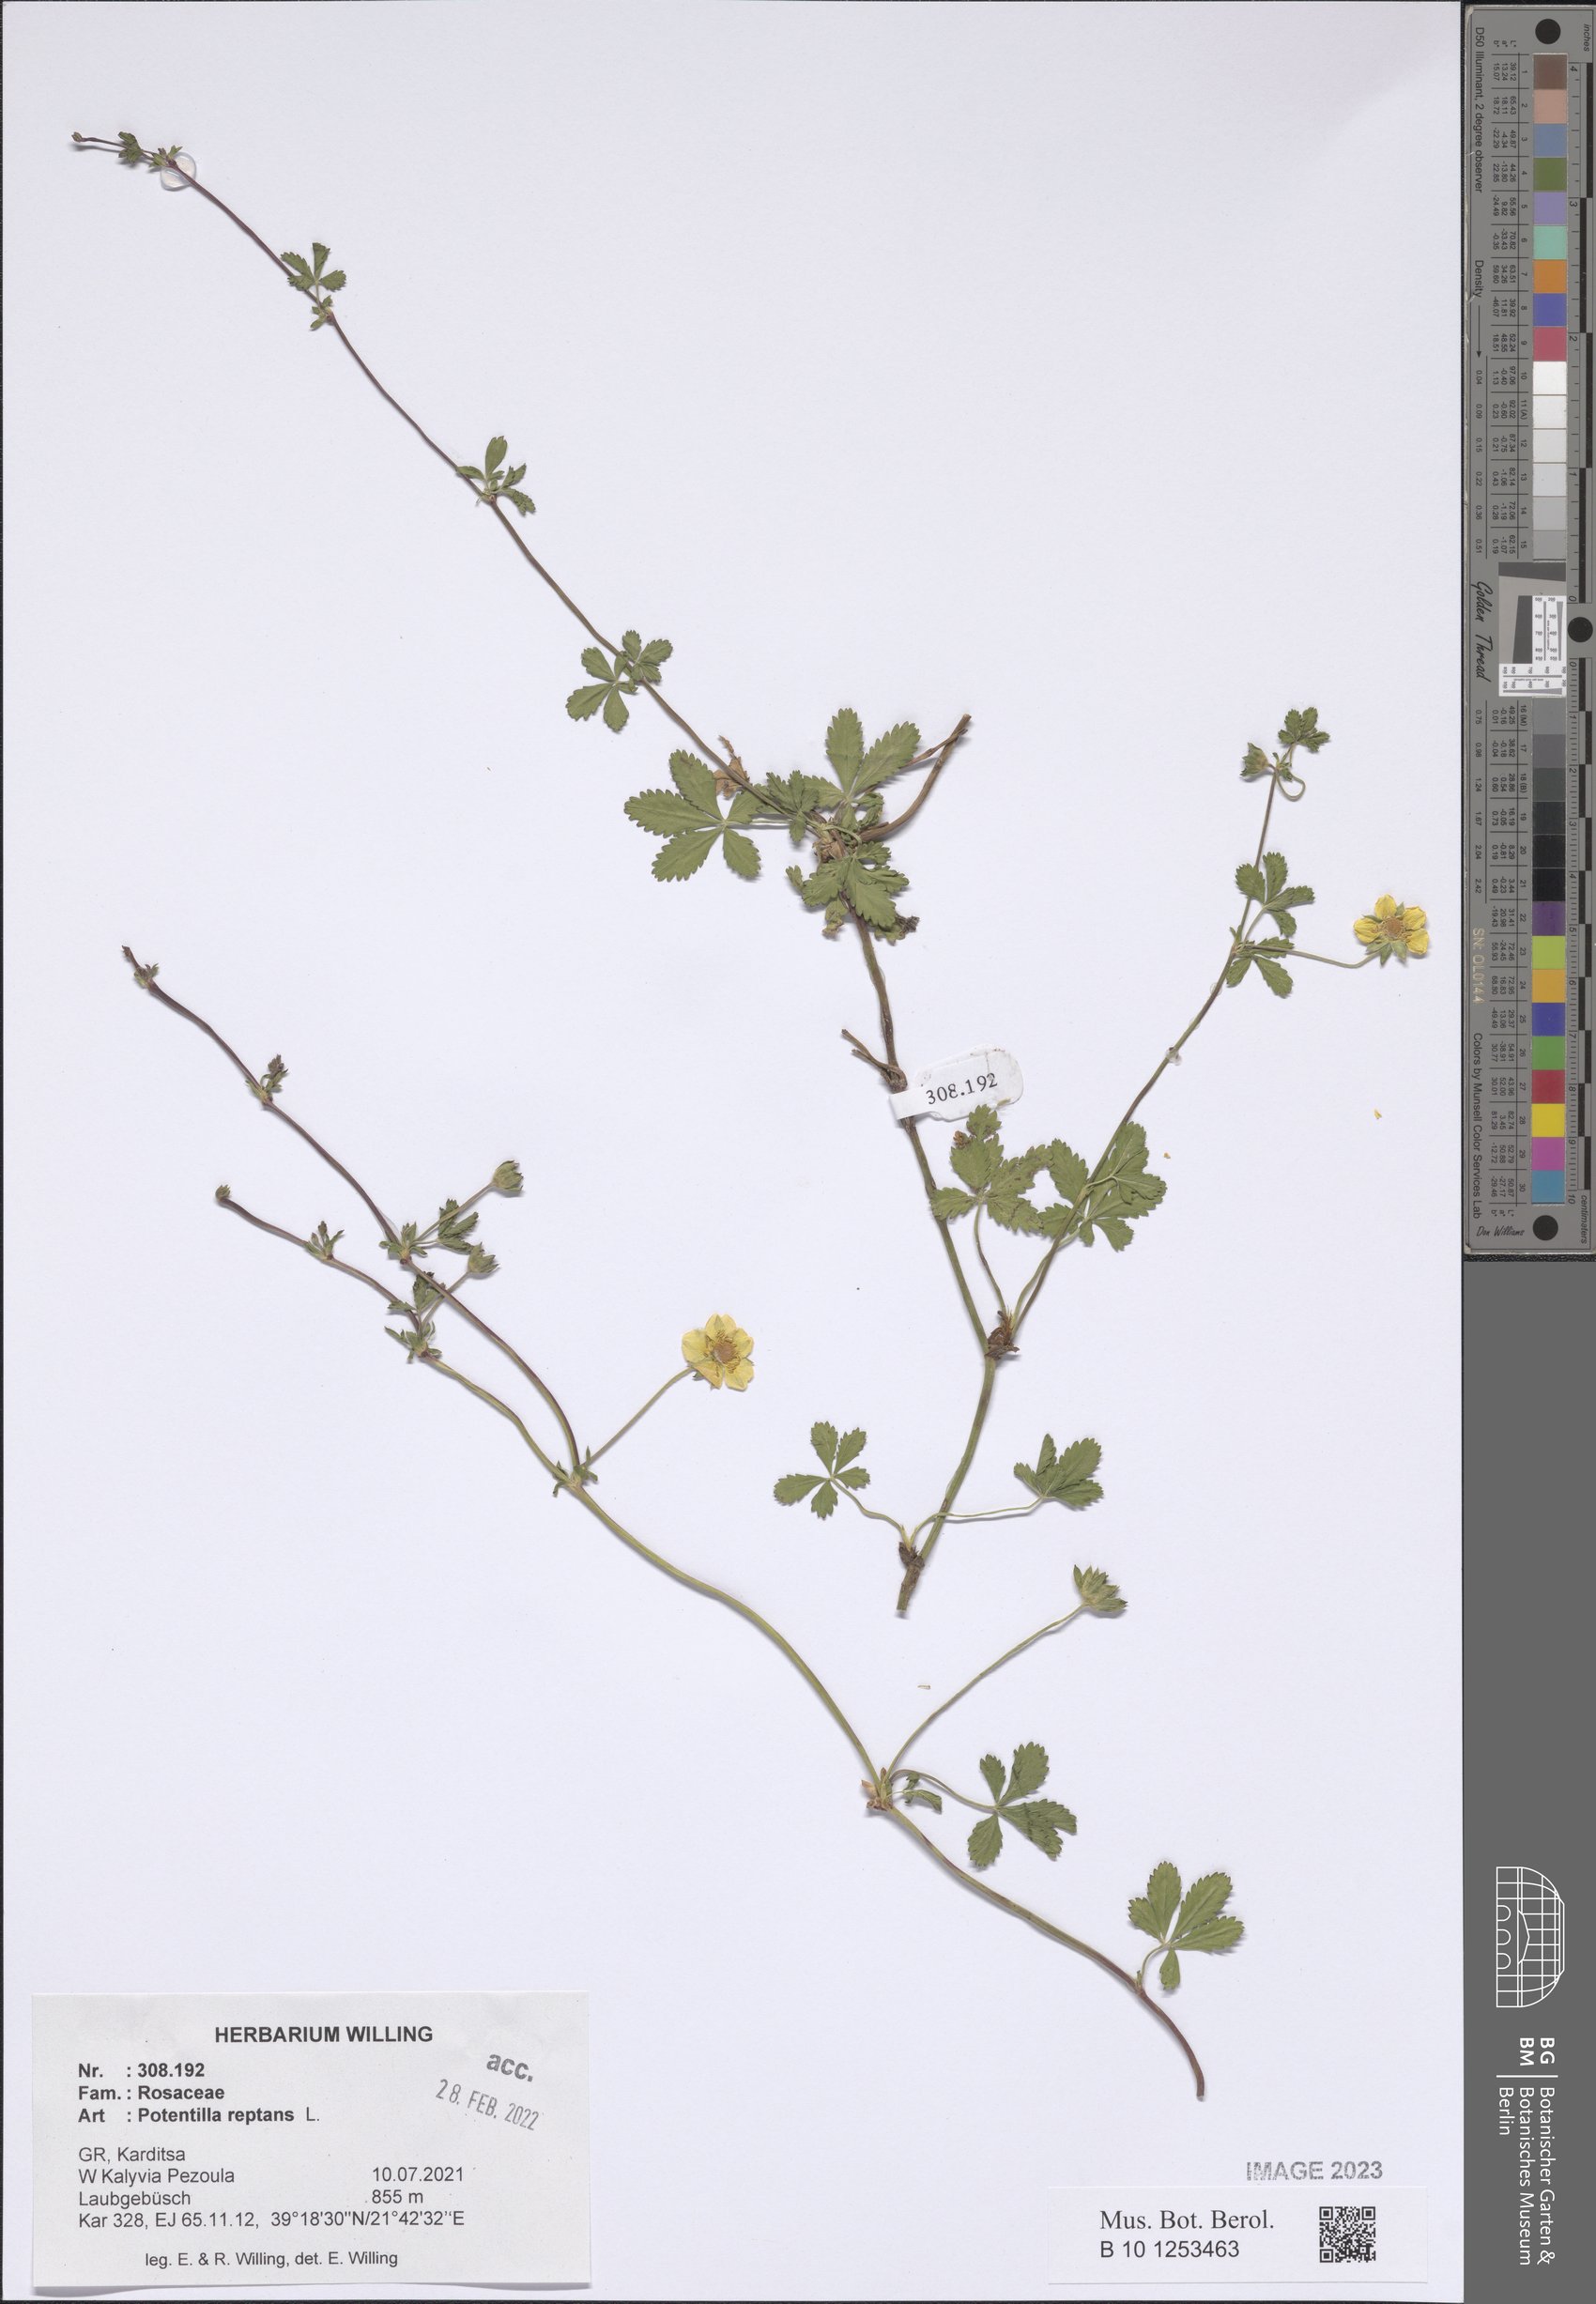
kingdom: Plantae
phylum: Tracheophyta
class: Magnoliopsida
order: Rosales
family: Rosaceae
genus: Potentilla
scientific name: Potentilla reptans
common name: Creeping cinquefoil
